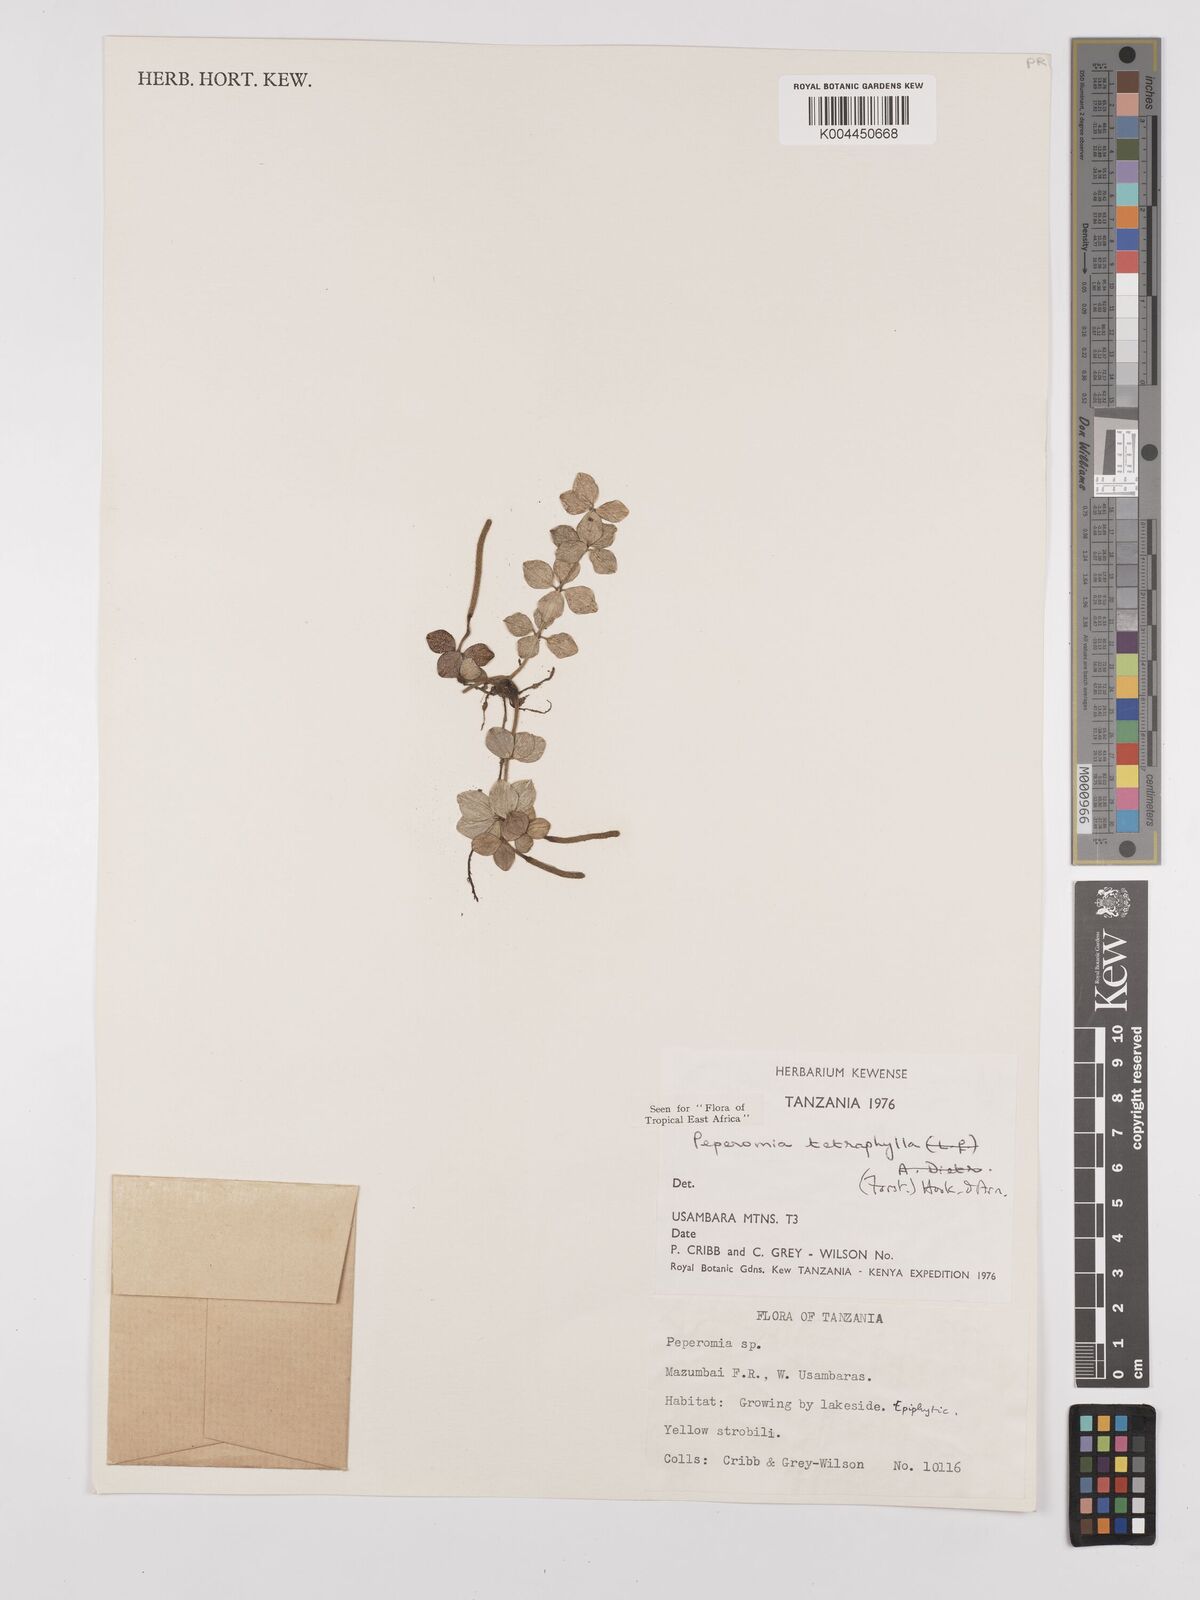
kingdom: Plantae
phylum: Tracheophyta
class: Magnoliopsida
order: Piperales
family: Piperaceae
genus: Peperomia
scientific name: Peperomia tetraphylla
